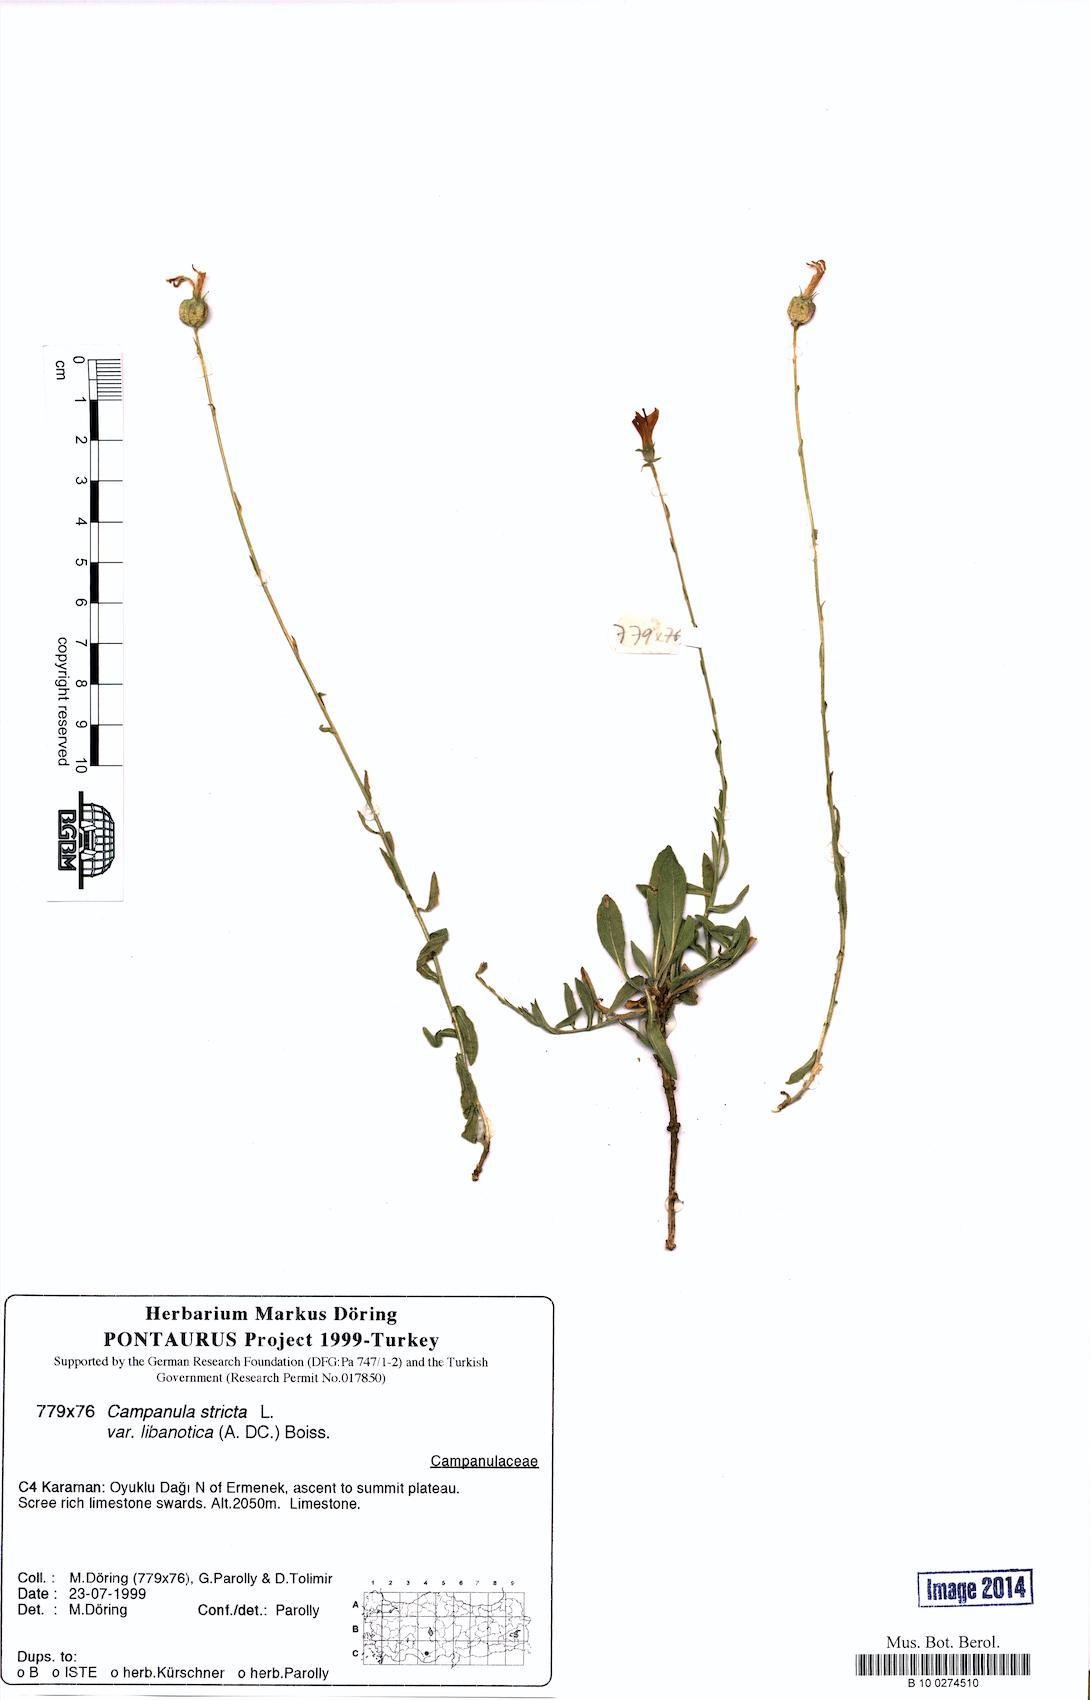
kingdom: Plantae
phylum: Tracheophyta
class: Magnoliopsida
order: Asterales
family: Campanulaceae
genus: Campanula
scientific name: Campanula stricta
